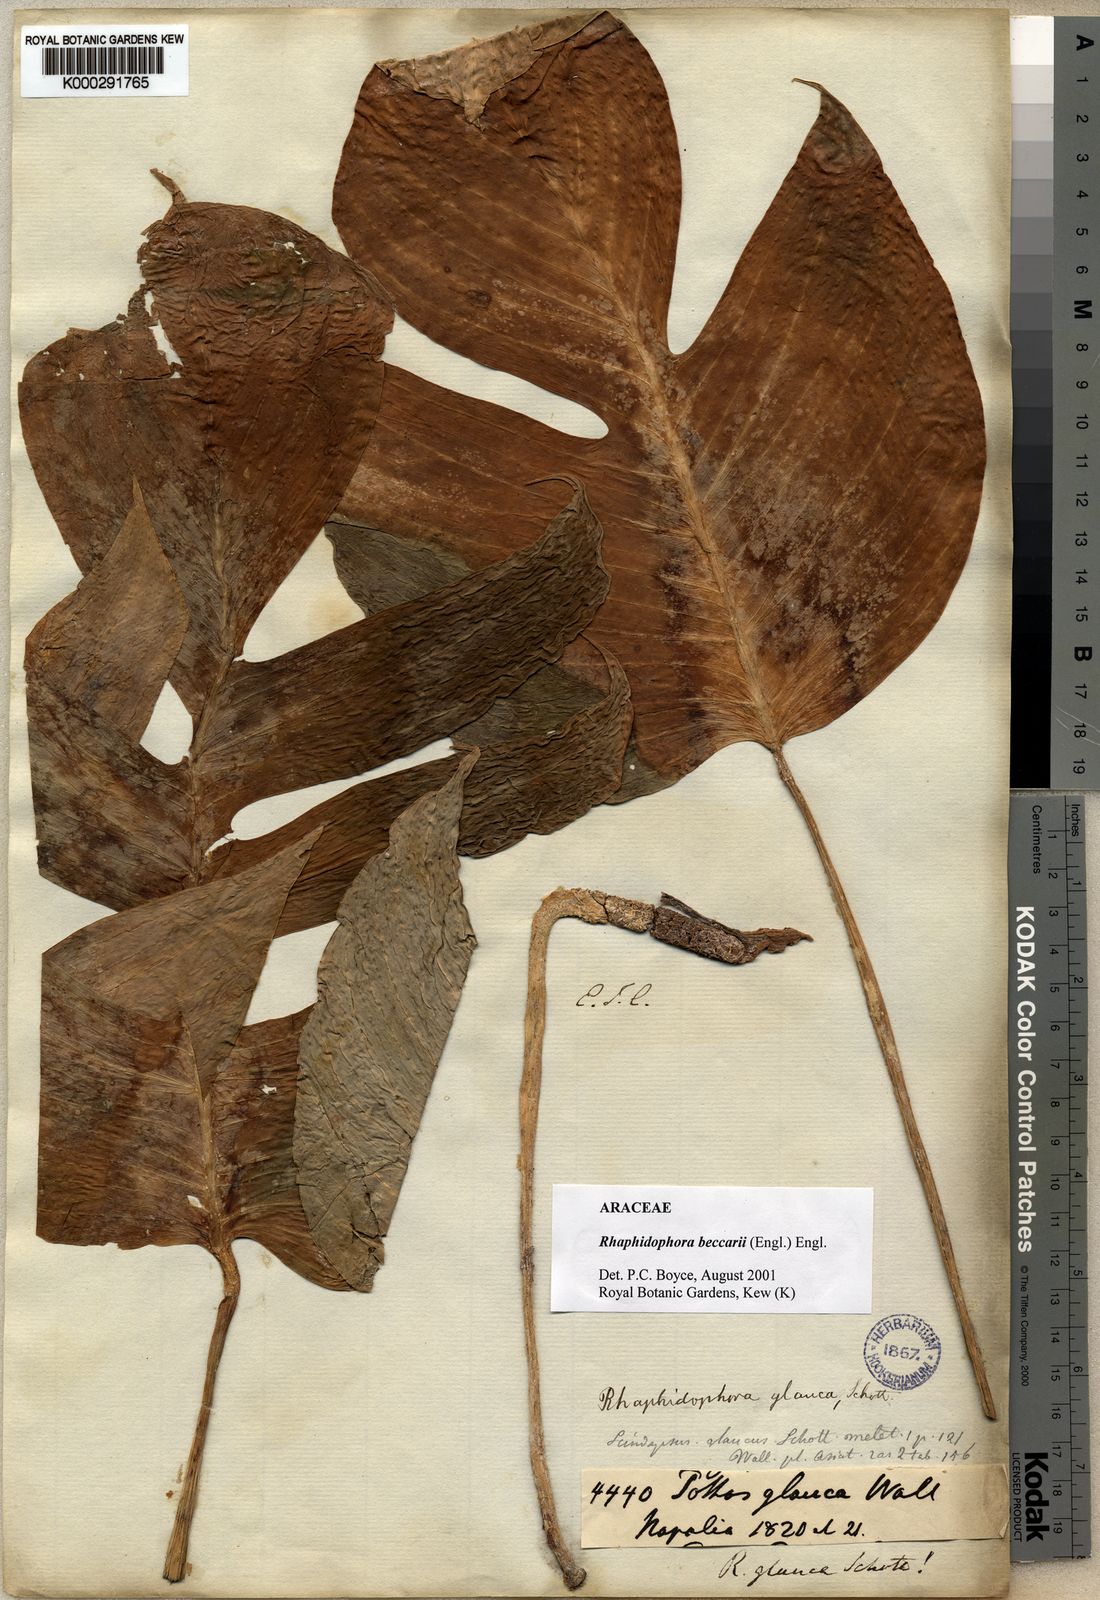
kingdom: Plantae
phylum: Tracheophyta
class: Liliopsida
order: Alismatales
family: Araceae
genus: Rhaphidophora
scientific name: Rhaphidophora beccarii
